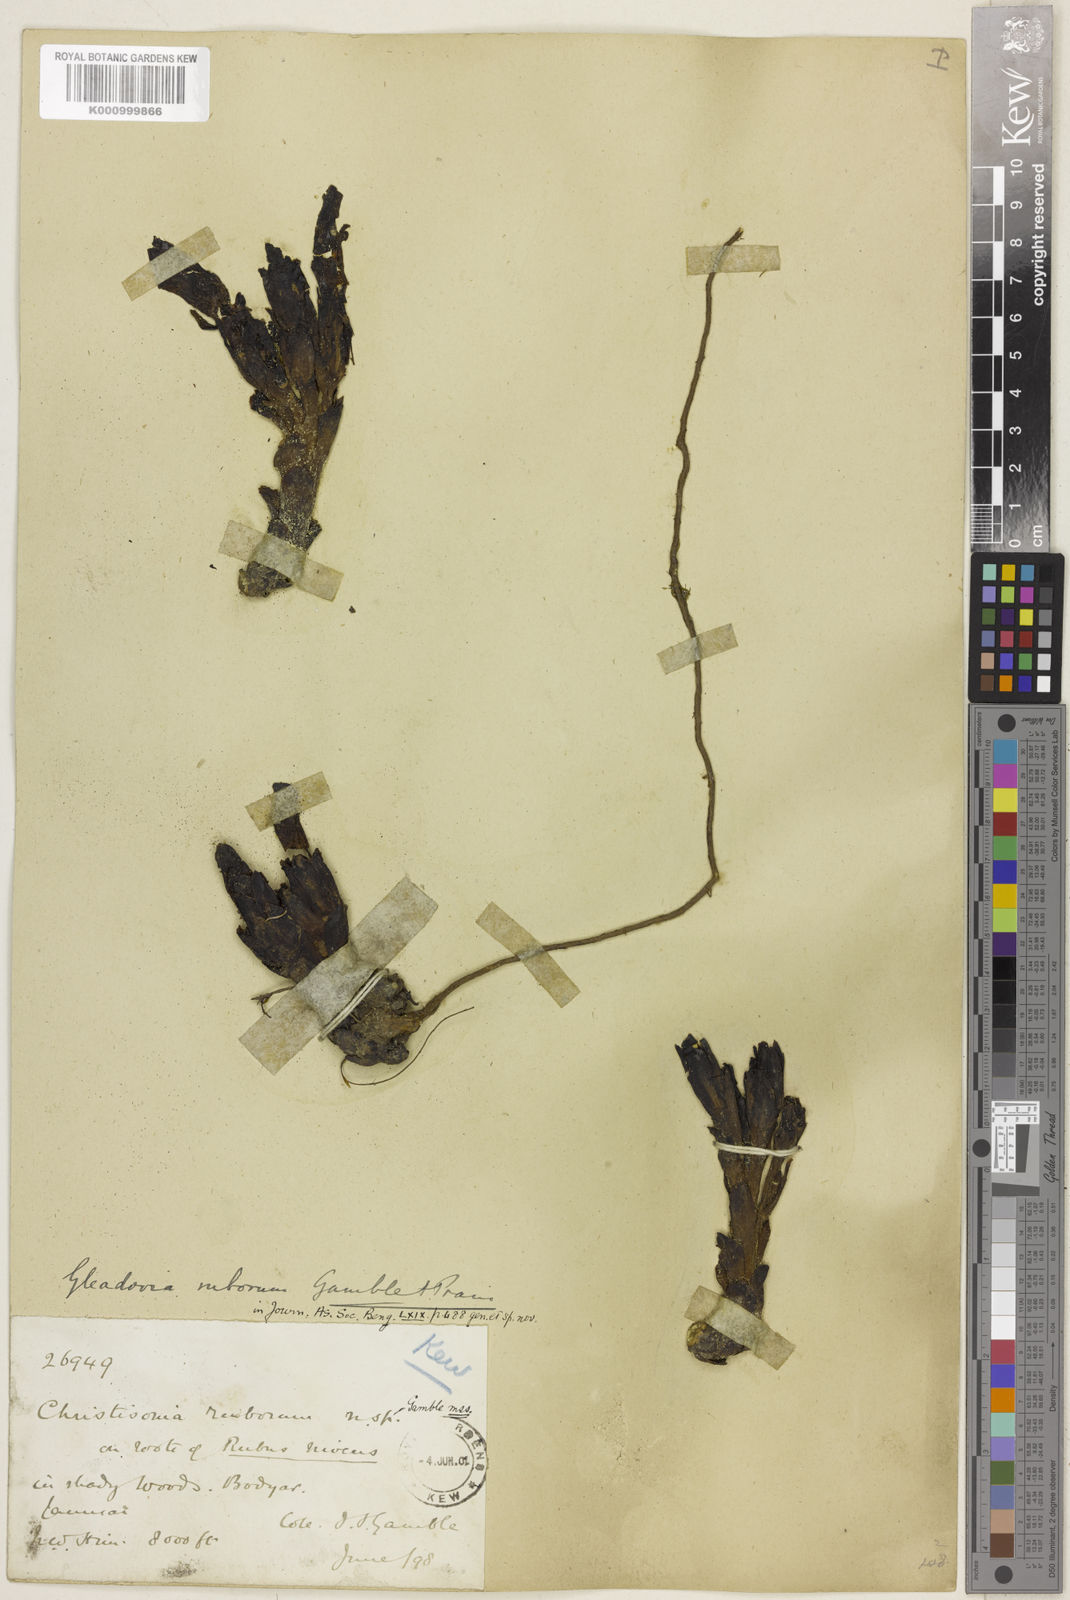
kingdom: Plantae
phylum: Tracheophyta
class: Magnoliopsida
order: Lamiales
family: Orobanchaceae
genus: Gleadovia
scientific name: Gleadovia ruborum
